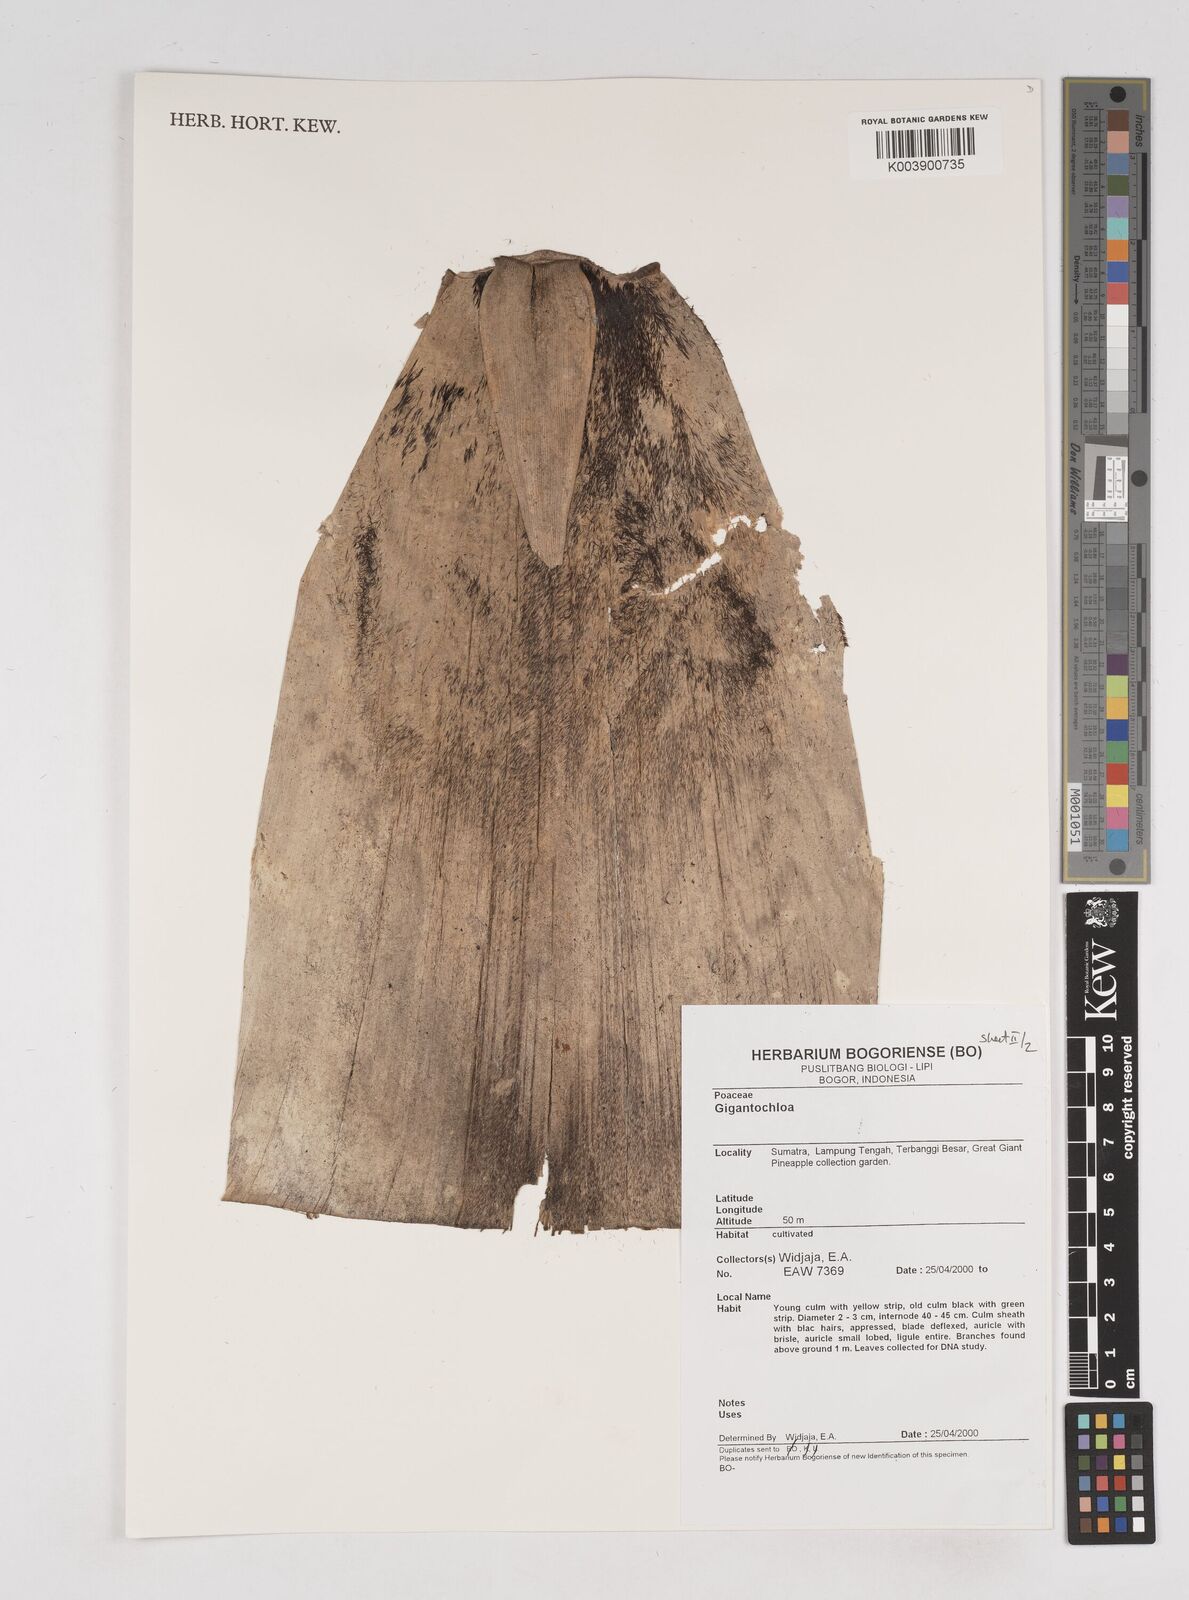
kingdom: Plantae
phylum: Tracheophyta
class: Liliopsida
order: Poales
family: Poaceae
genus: Gigantochloa
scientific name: Gigantochloa
